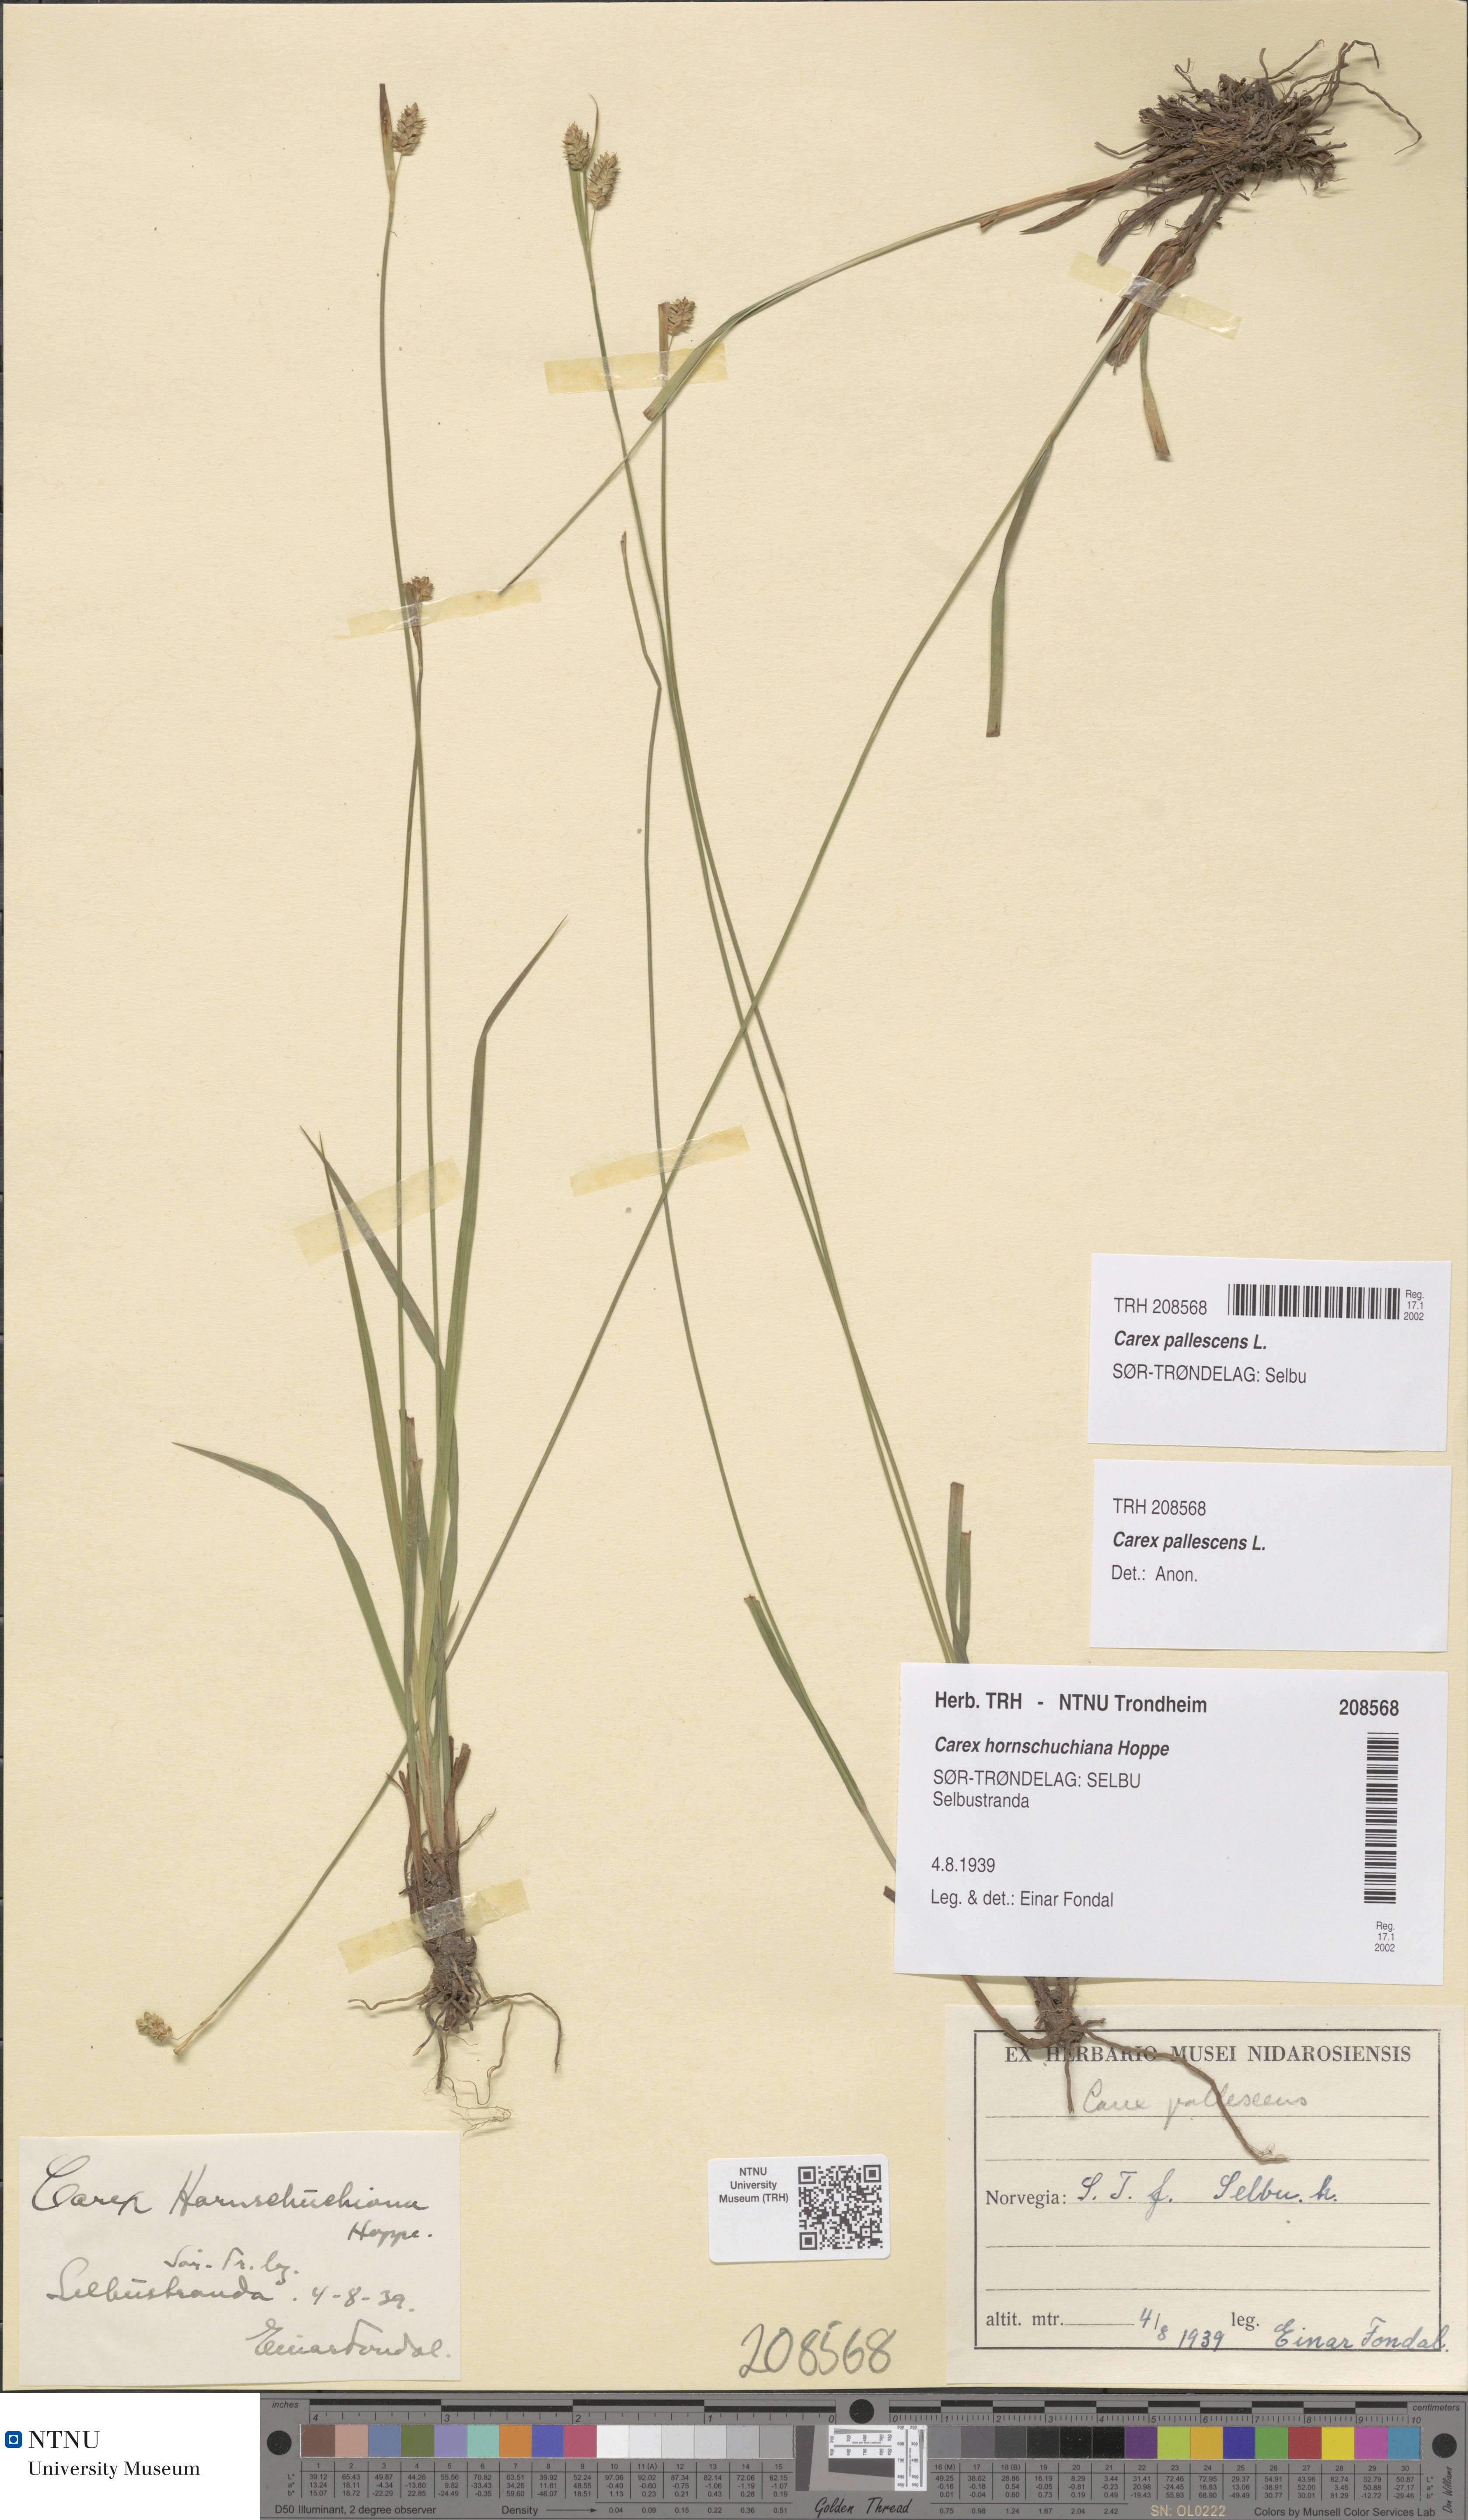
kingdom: Plantae
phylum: Tracheophyta
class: Liliopsida
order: Poales
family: Cyperaceae
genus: Carex
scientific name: Carex pallescens
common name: Pale sedge
